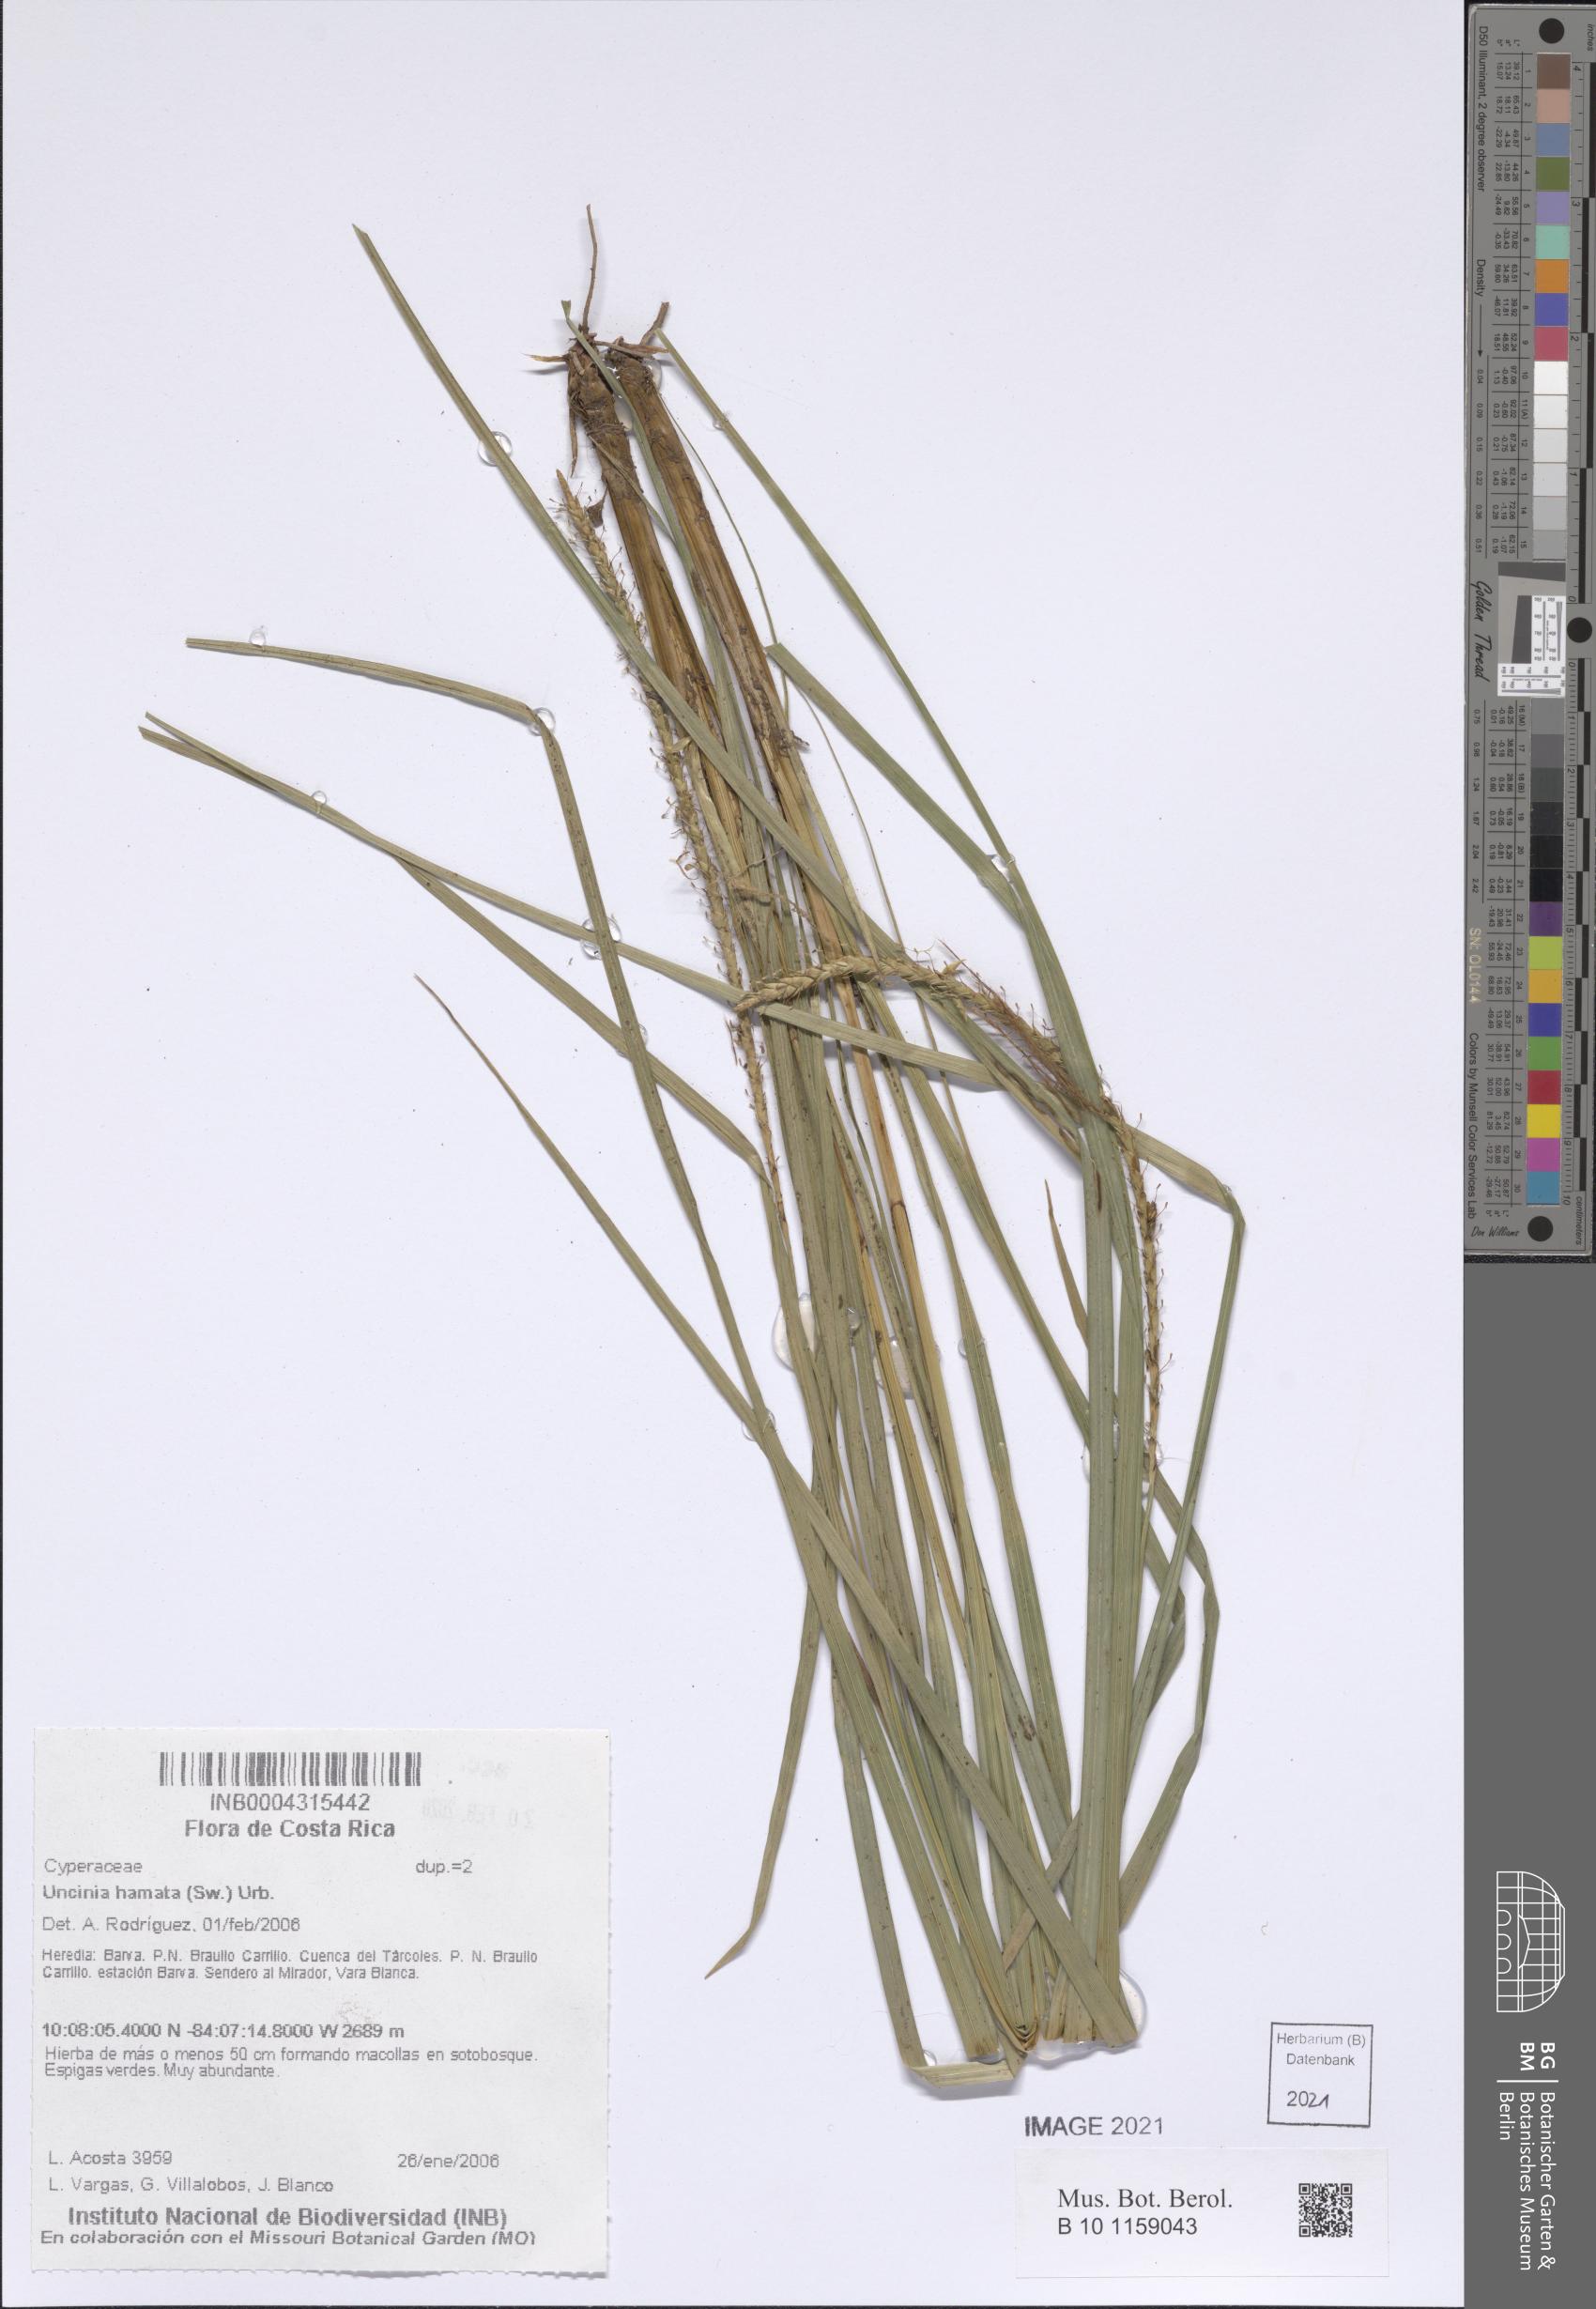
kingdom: Plantae
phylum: Tracheophyta
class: Liliopsida
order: Poales
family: Cyperaceae
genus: Carex
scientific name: Carex hamata
